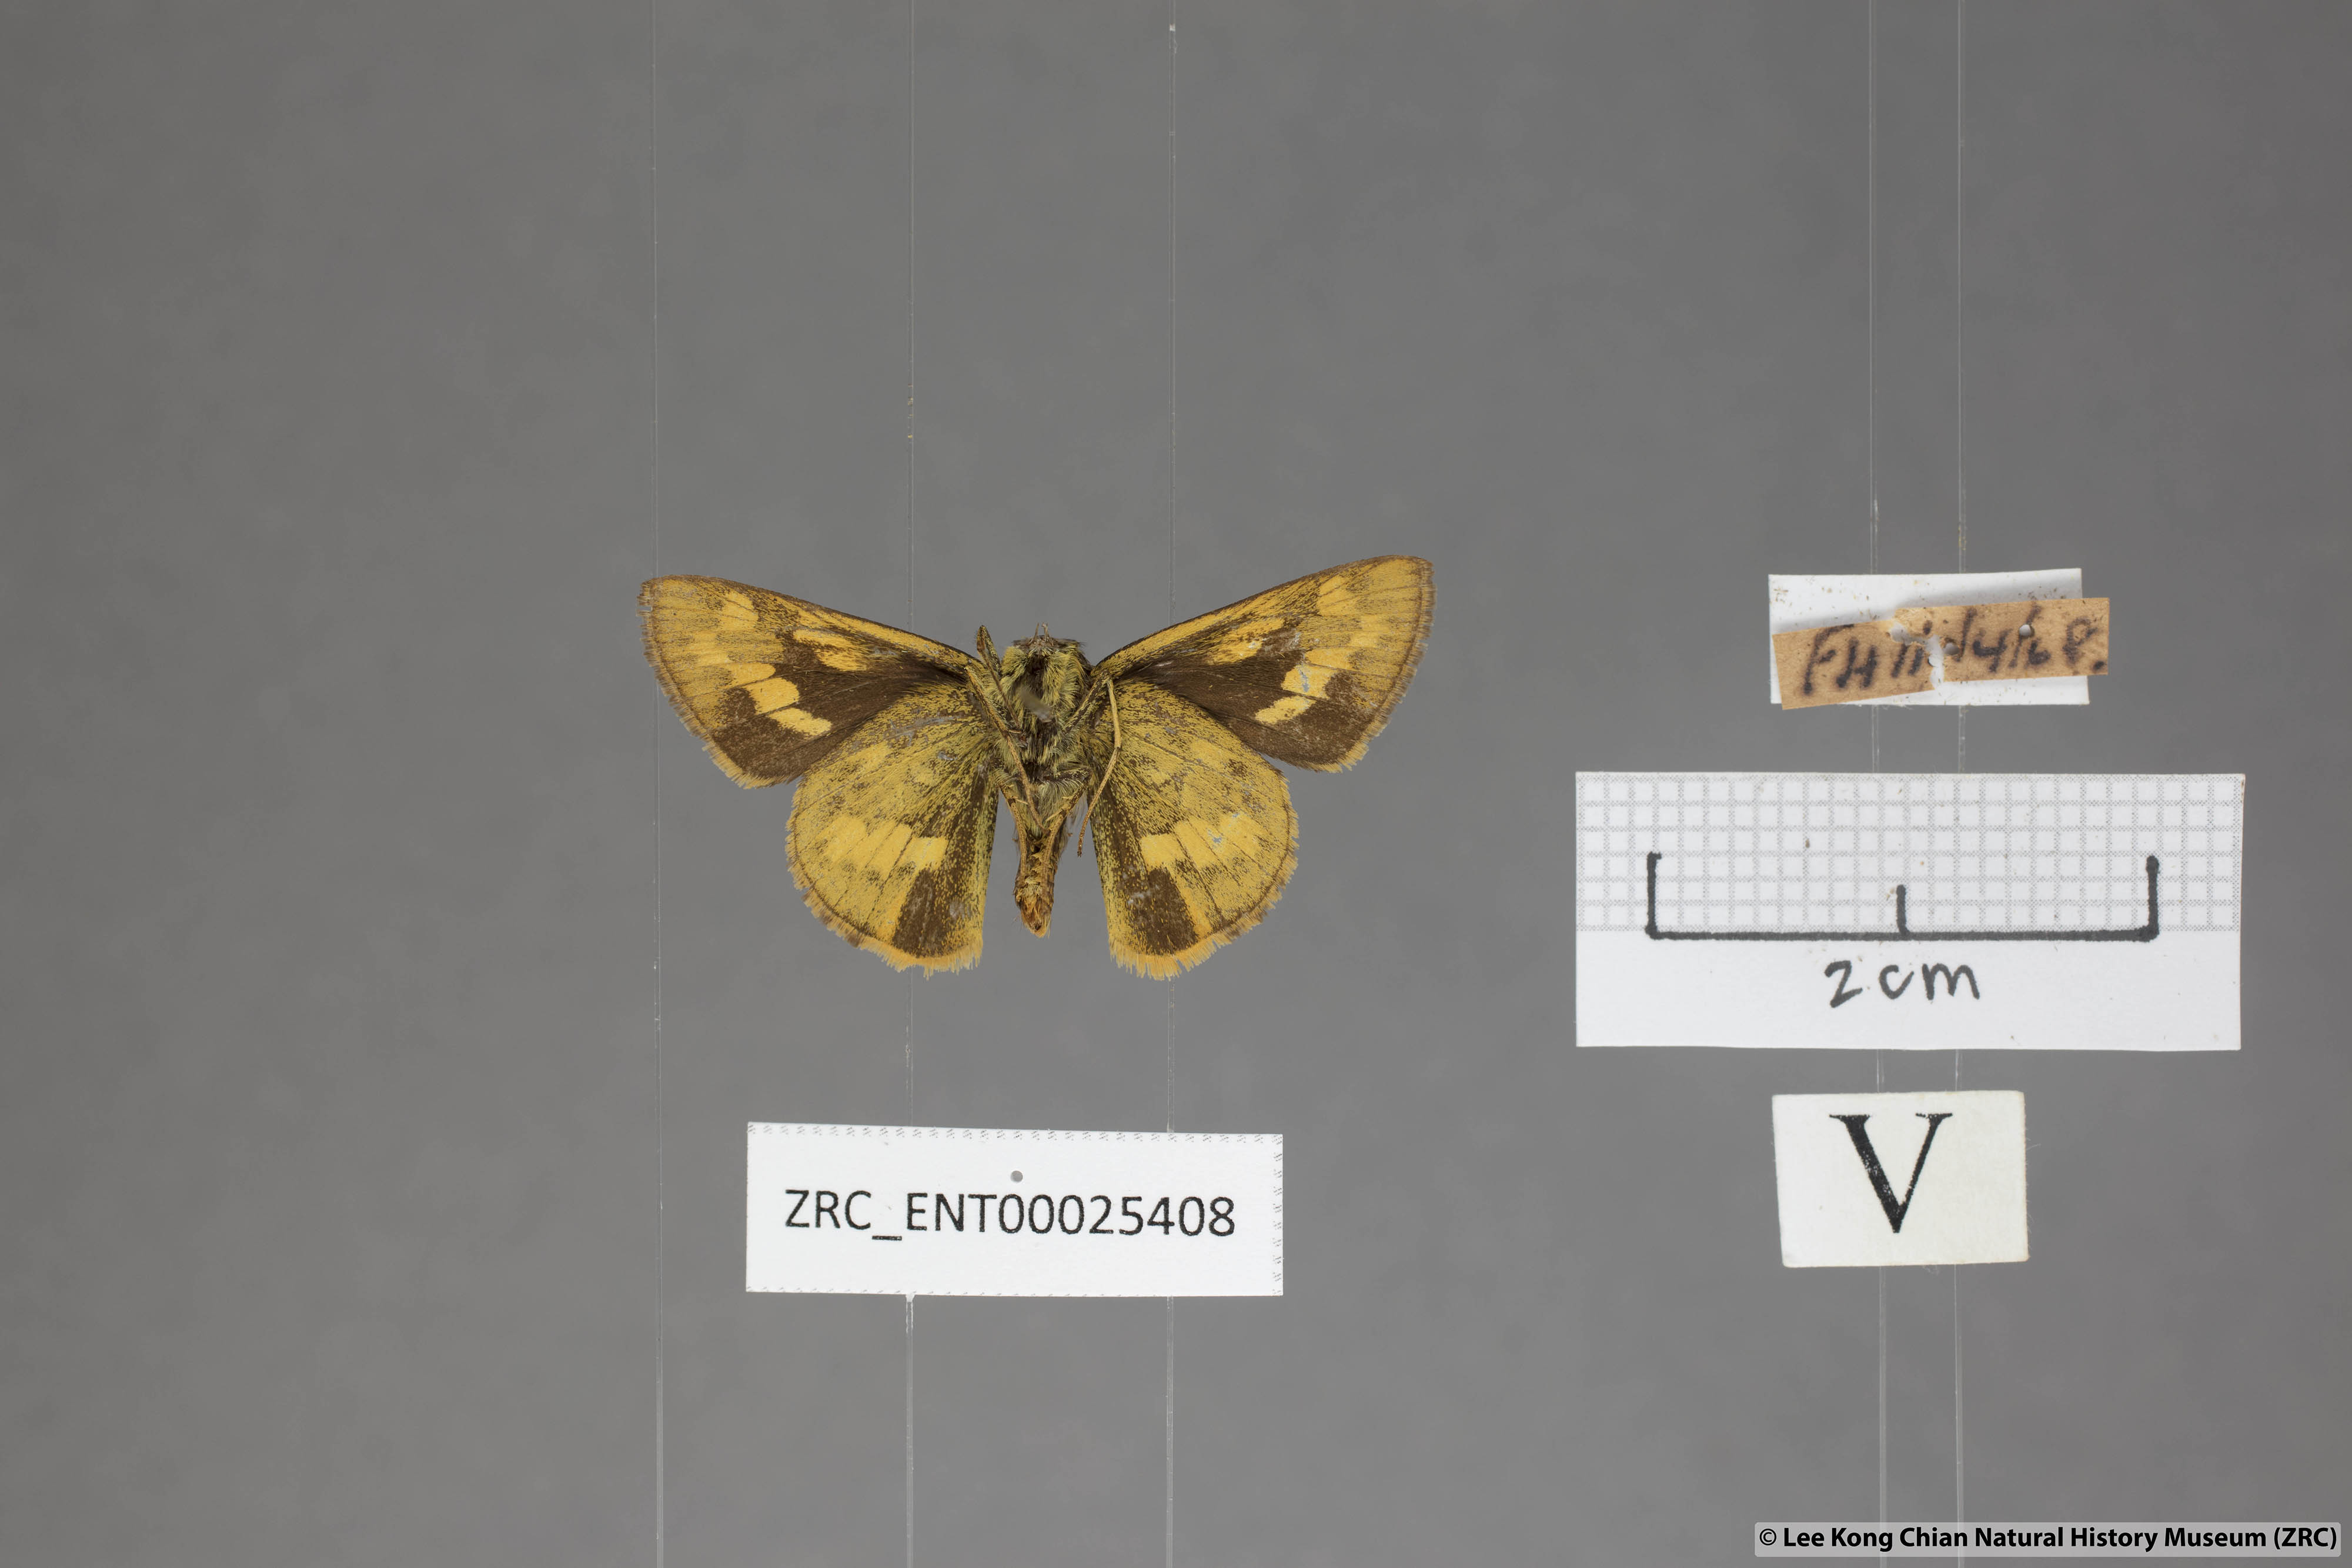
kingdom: Animalia
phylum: Arthropoda
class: Insecta
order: Lepidoptera
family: Hesperiidae
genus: Potanthus
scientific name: Potanthus lydia
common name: Lydia dart
